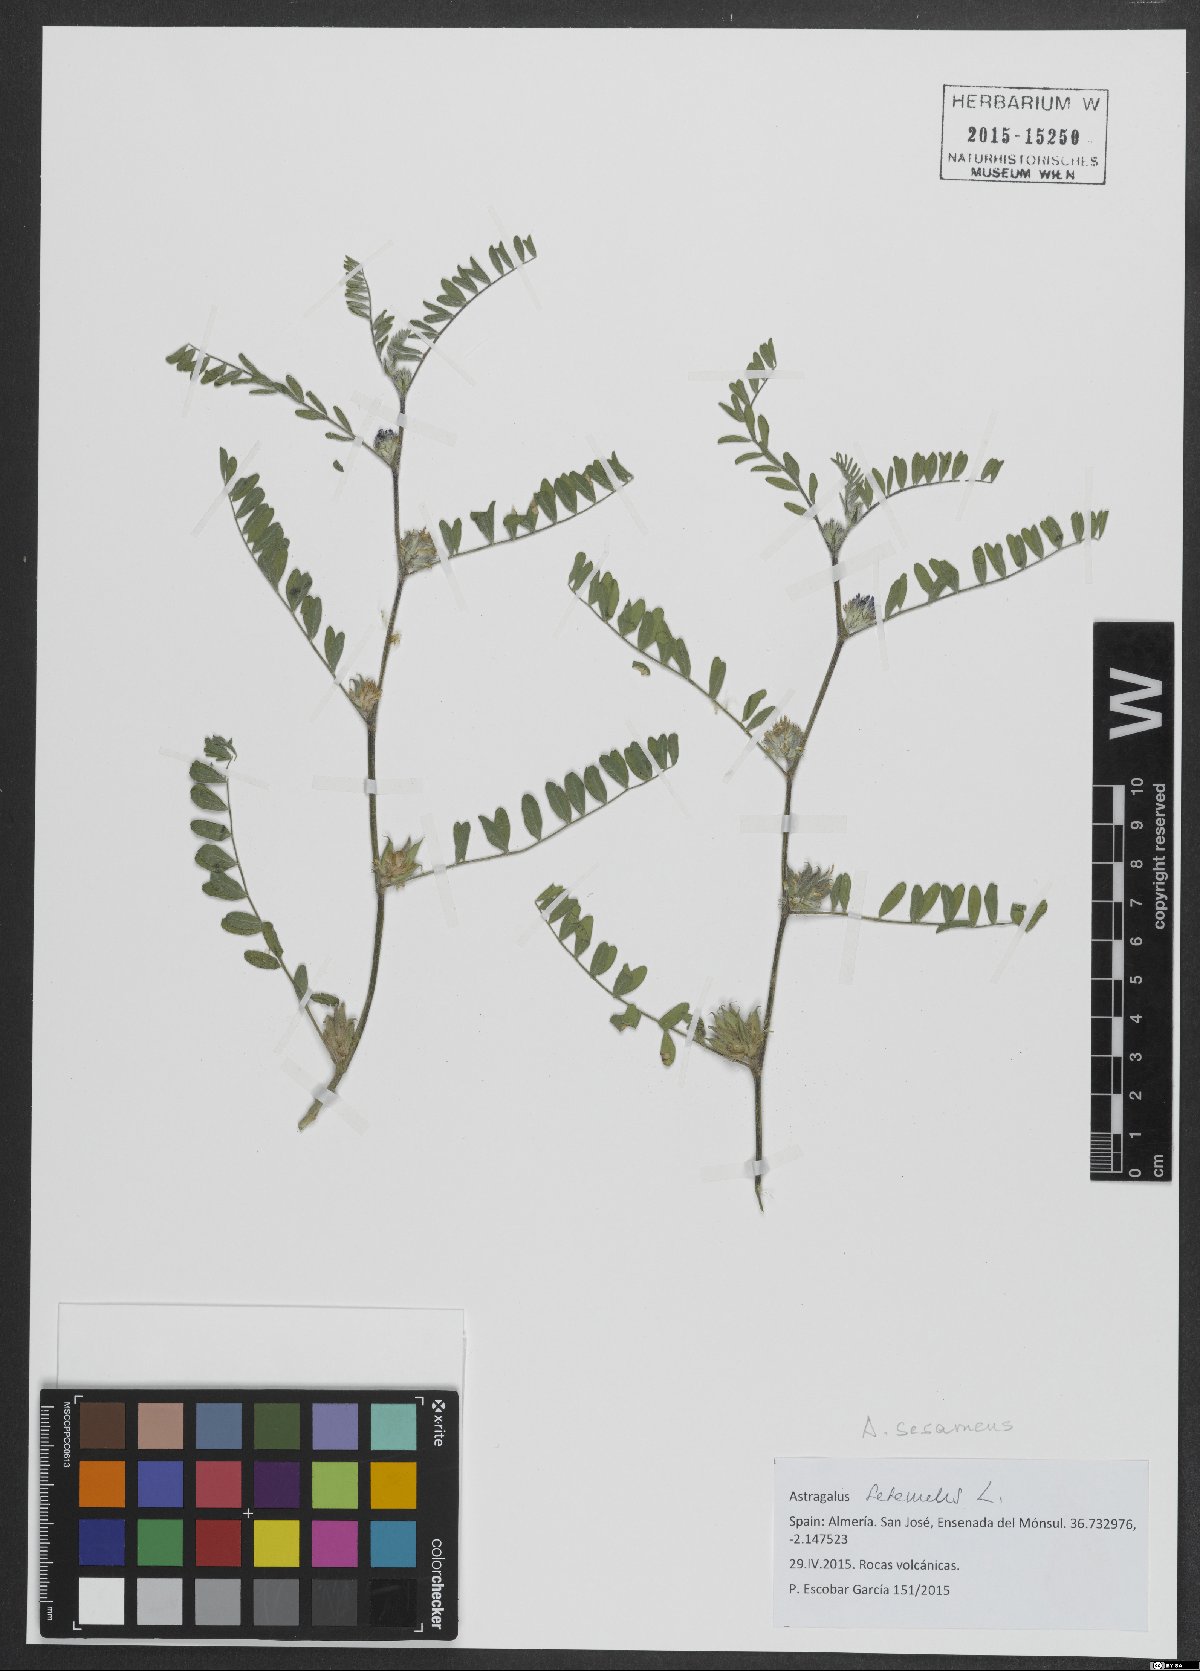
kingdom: Plantae
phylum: Tracheophyta
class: Magnoliopsida
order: Fabales
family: Fabaceae
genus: Astragalus
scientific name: Astragalus sesameus
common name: Purple milk-vetch
